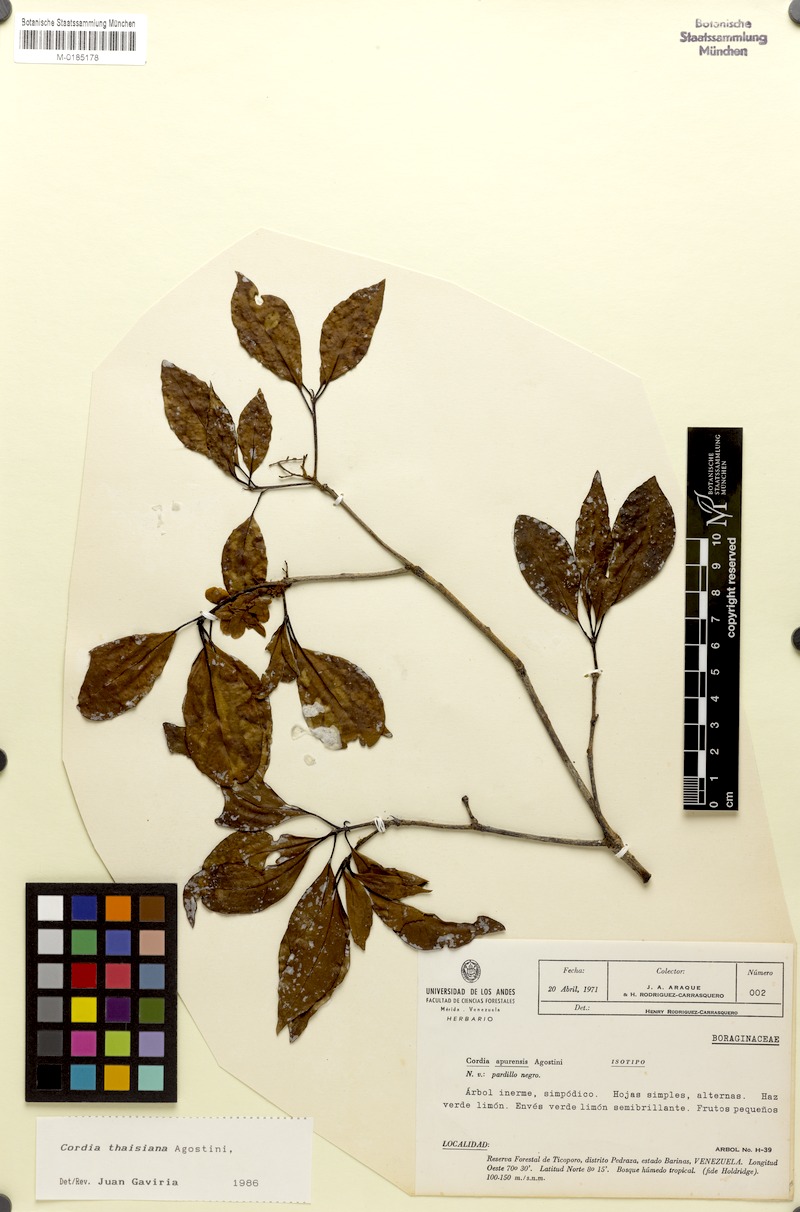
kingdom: Plantae
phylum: Tracheophyta
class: Magnoliopsida
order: Boraginales
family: Cordiaceae
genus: Cordia
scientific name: Cordia thaisiana
